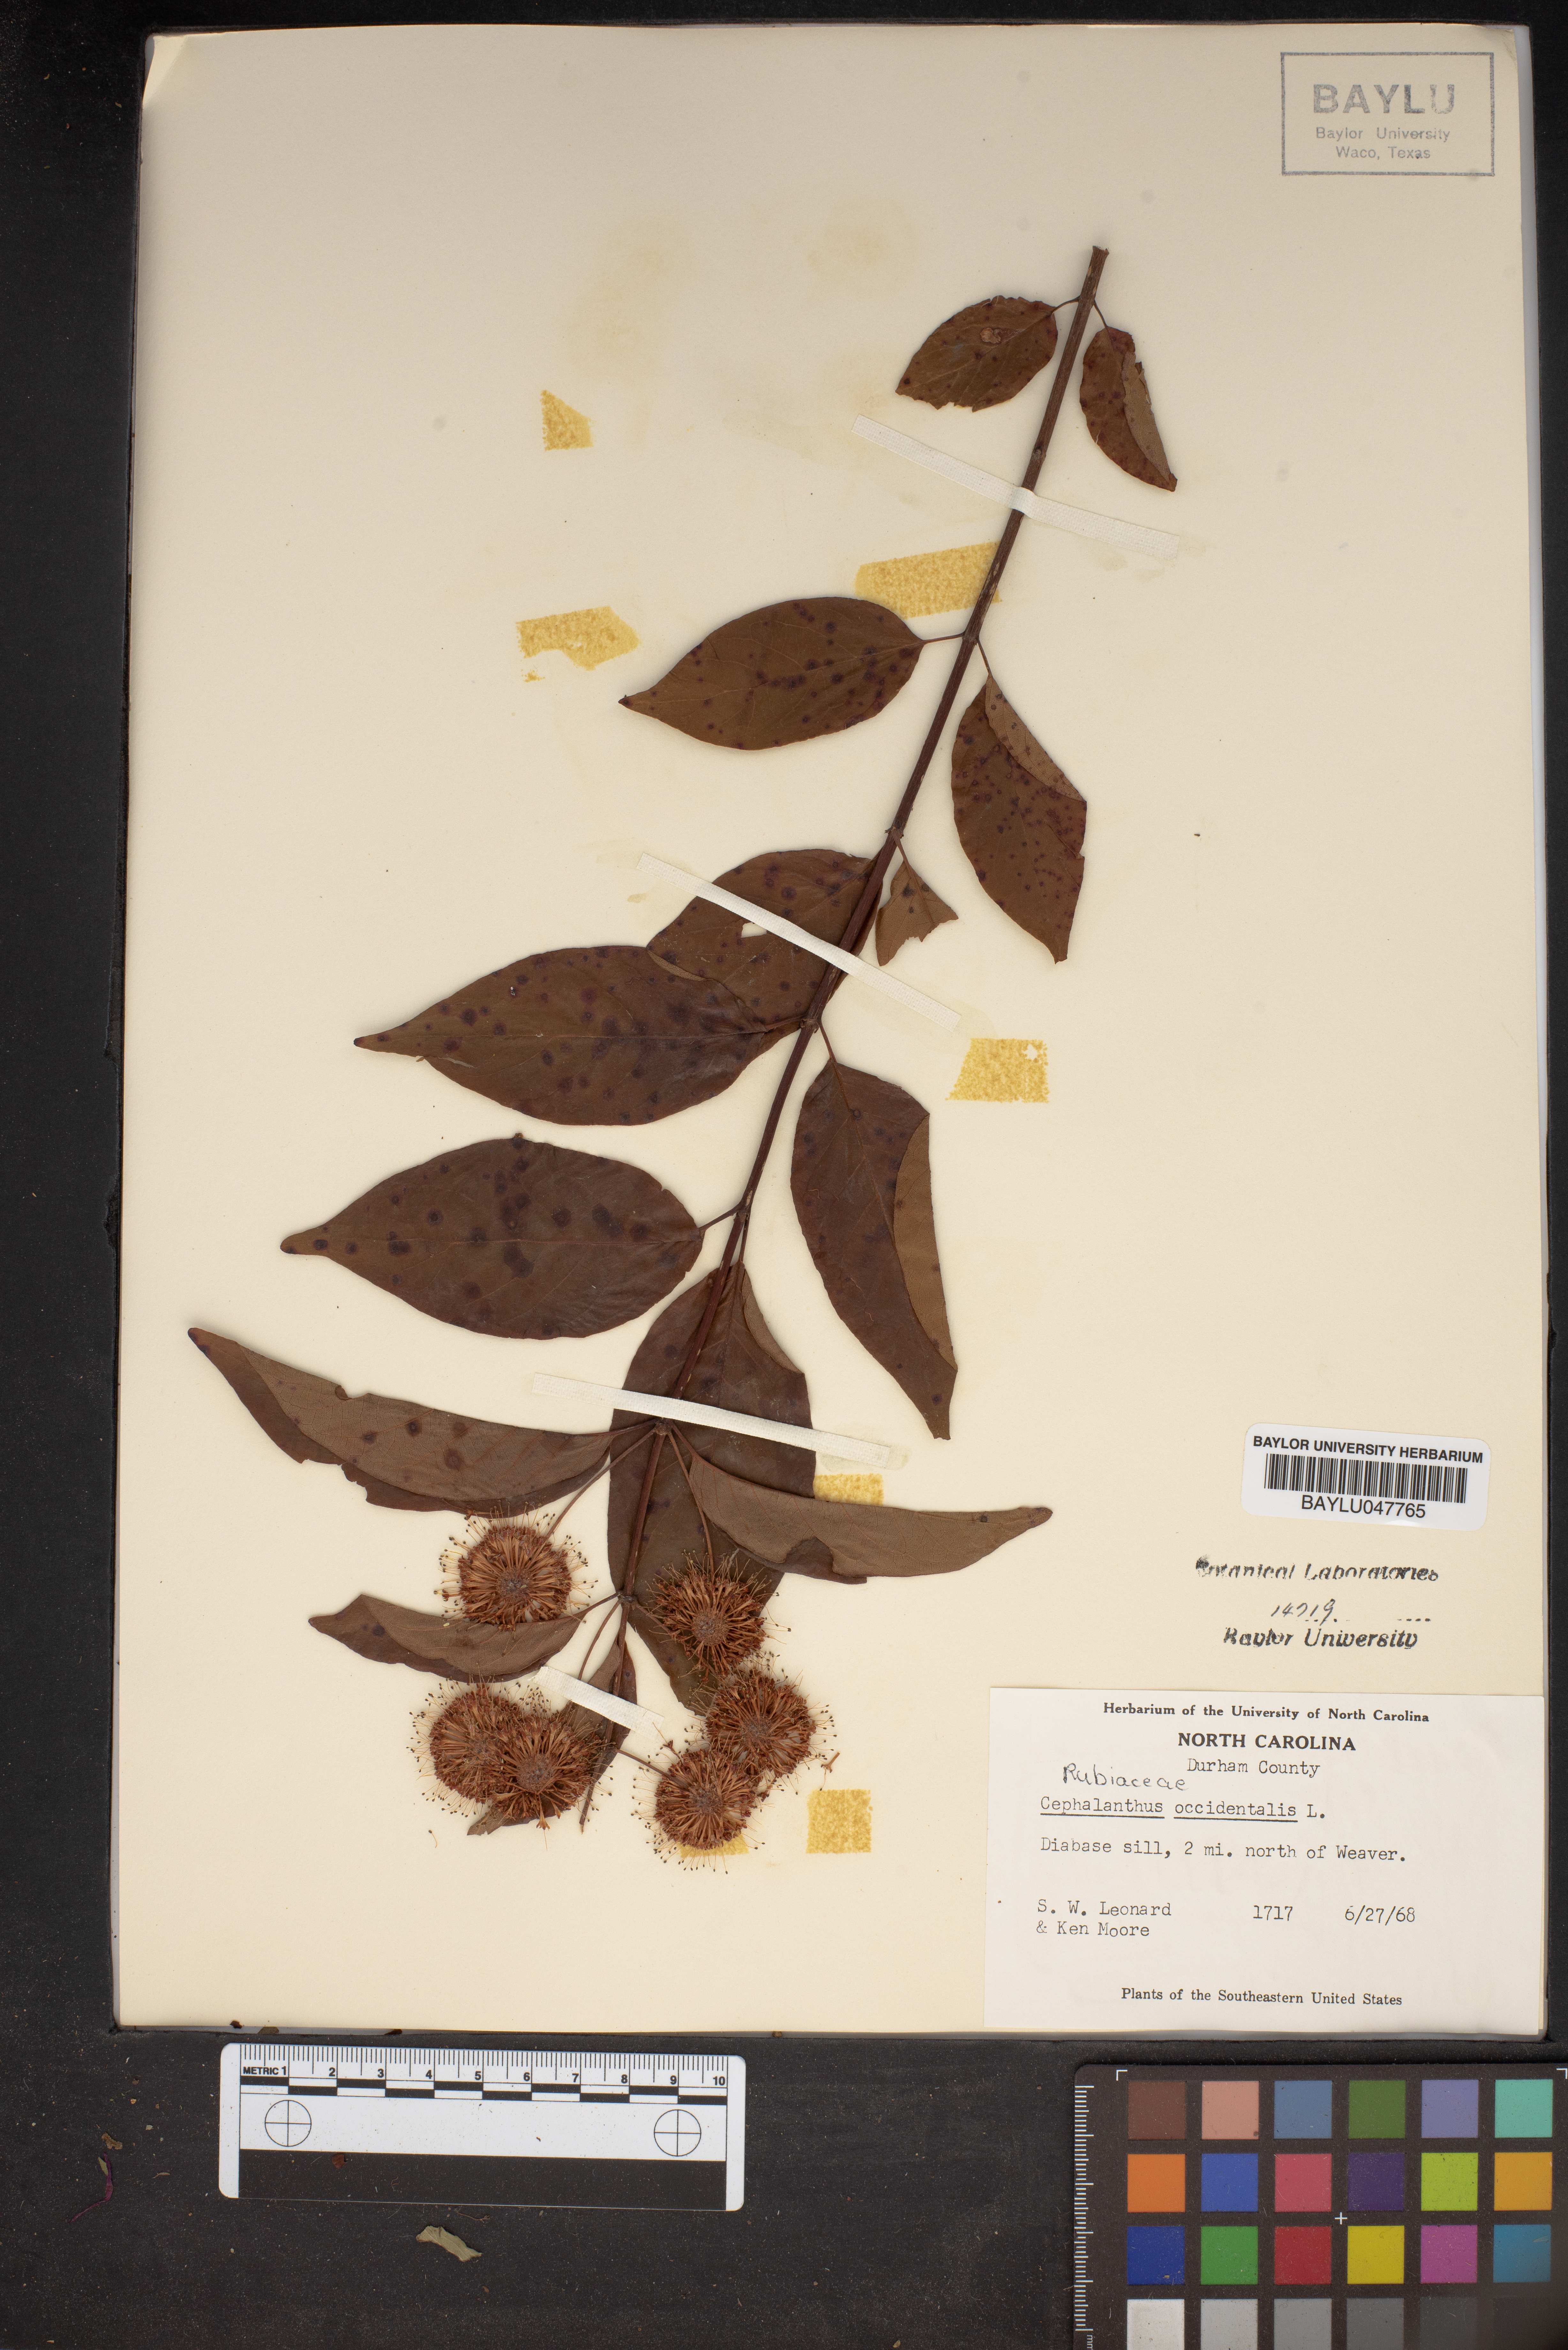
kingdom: Plantae
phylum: Tracheophyta
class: Magnoliopsida
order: Gentianales
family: Rubiaceae
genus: Cephalanthus
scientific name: Cephalanthus occidentalis
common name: Button-willow
